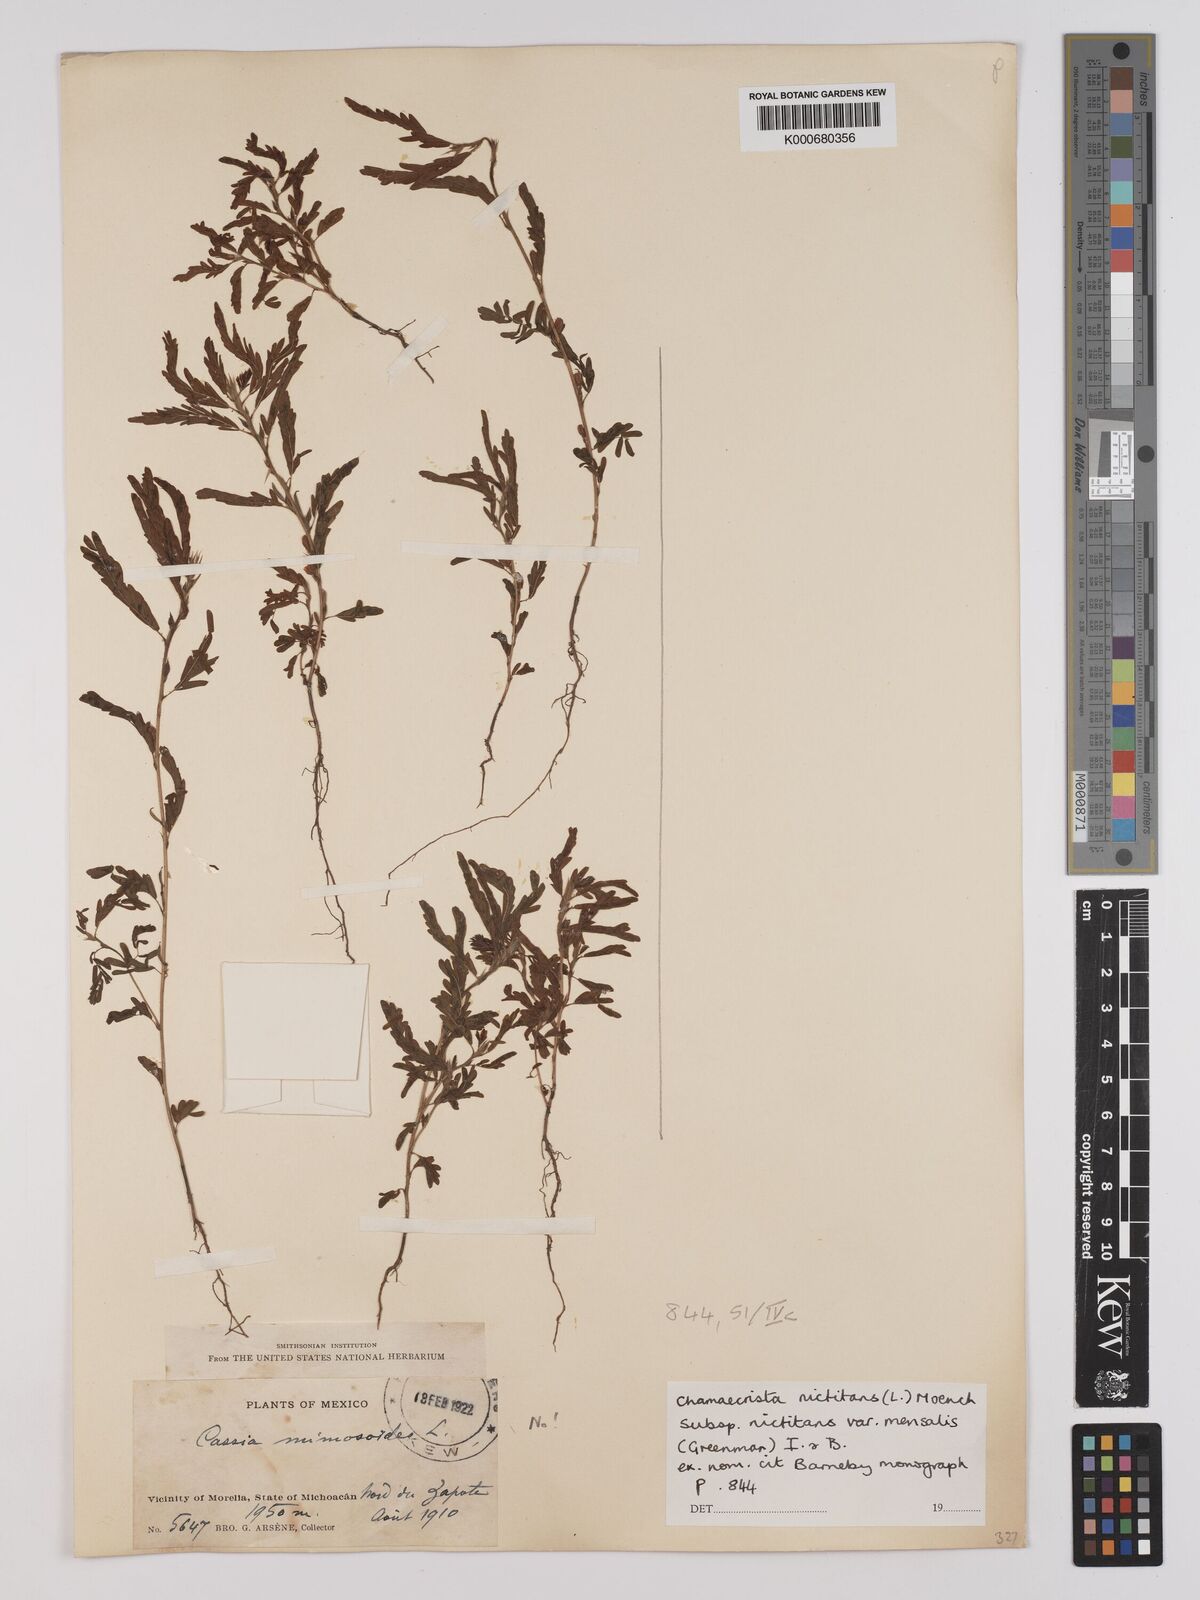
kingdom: Plantae
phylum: Tracheophyta
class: Magnoliopsida
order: Fabales
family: Fabaceae
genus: Chamaecrista
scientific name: Chamaecrista nictitans
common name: Sensitive cassia
